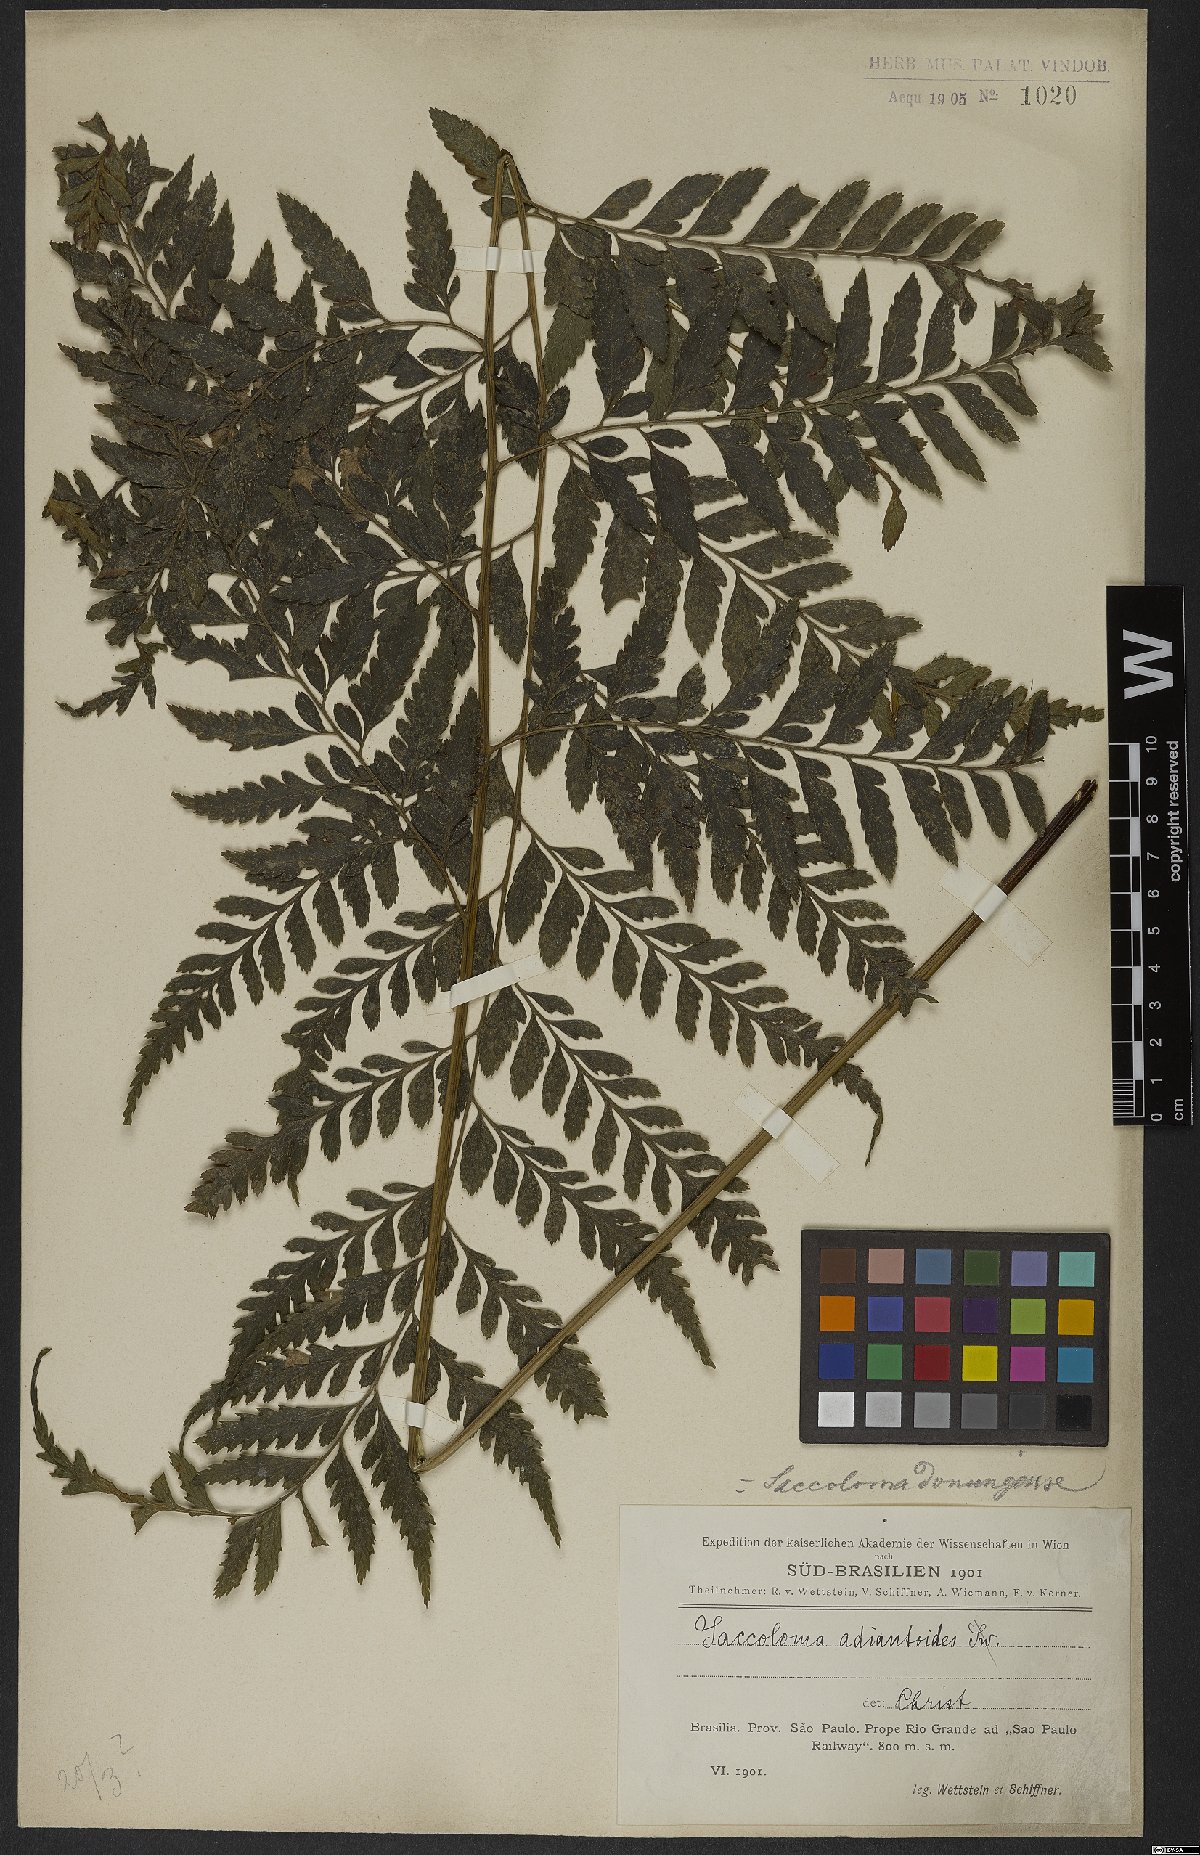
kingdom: Plantae
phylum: Tracheophyta
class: Polypodiopsida
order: Polypodiales
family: Saccolomataceae
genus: Saccoloma
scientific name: Saccoloma domingense
